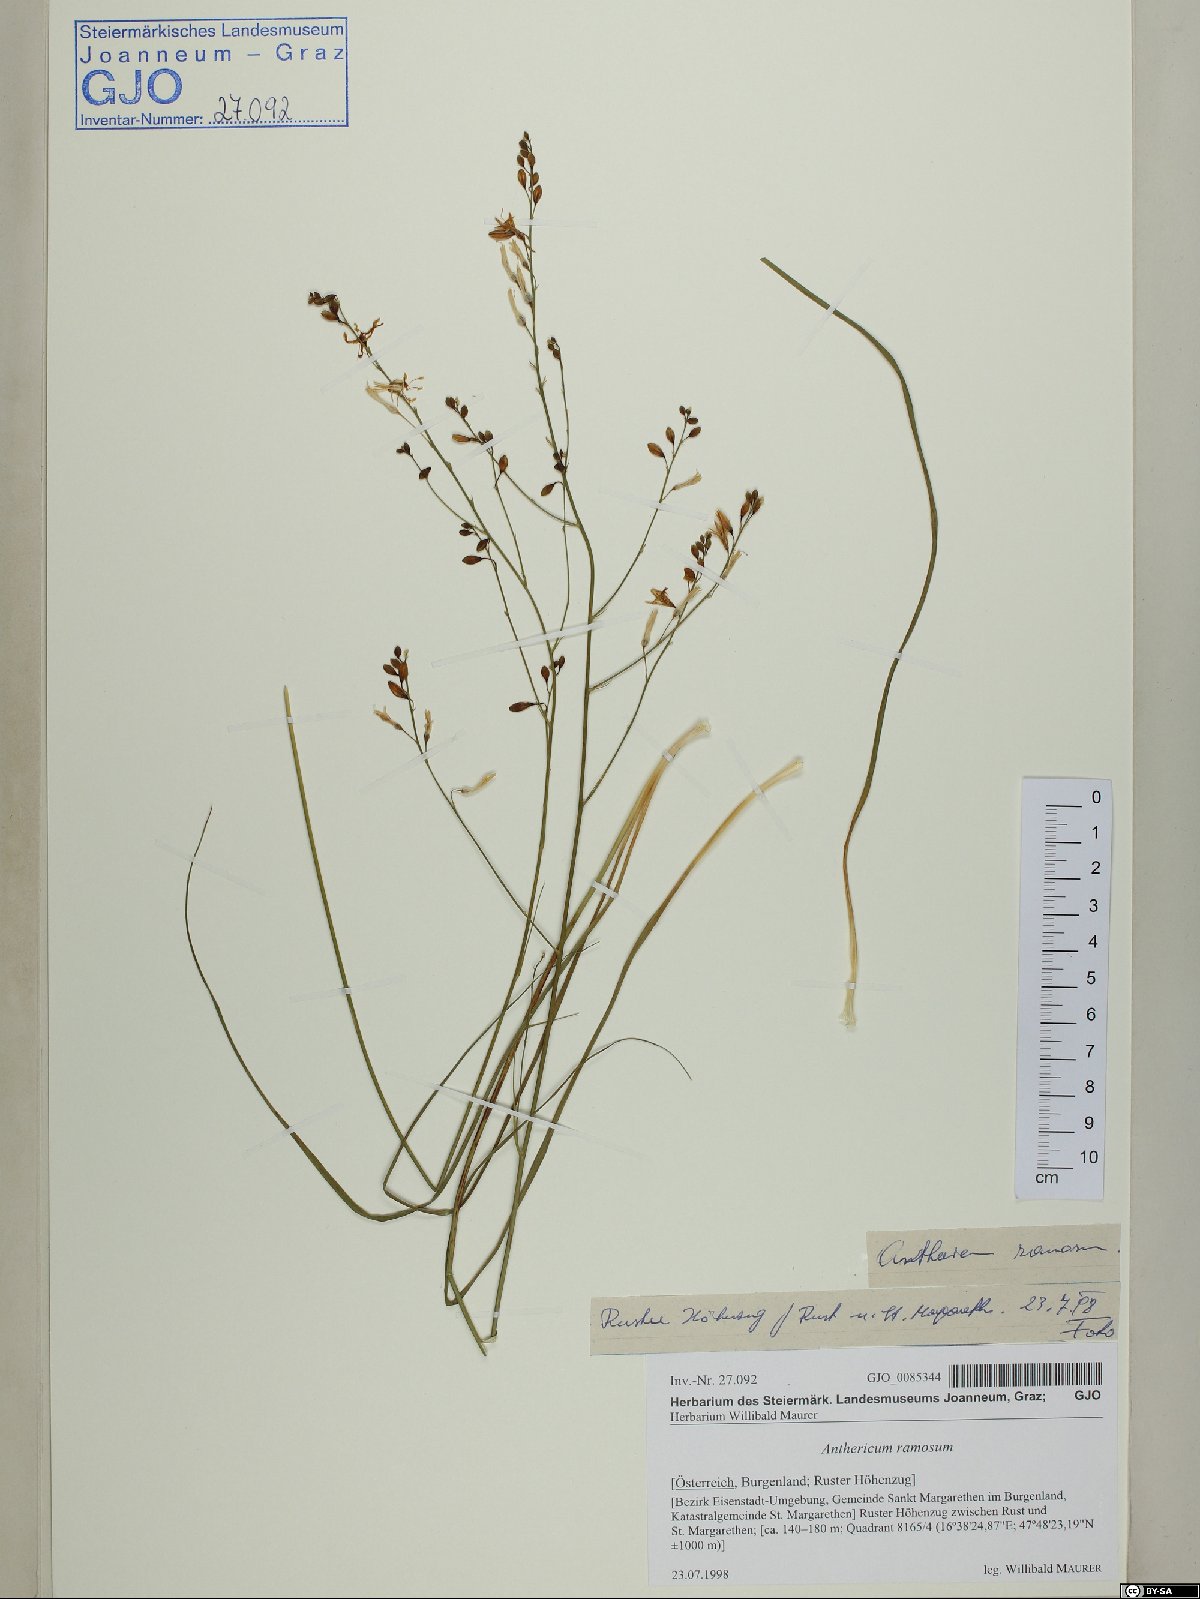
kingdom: Plantae
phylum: Tracheophyta
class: Liliopsida
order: Asparagales
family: Asparagaceae
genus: Anthericum
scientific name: Anthericum ramosum
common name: Branched st. bernard's-lily
